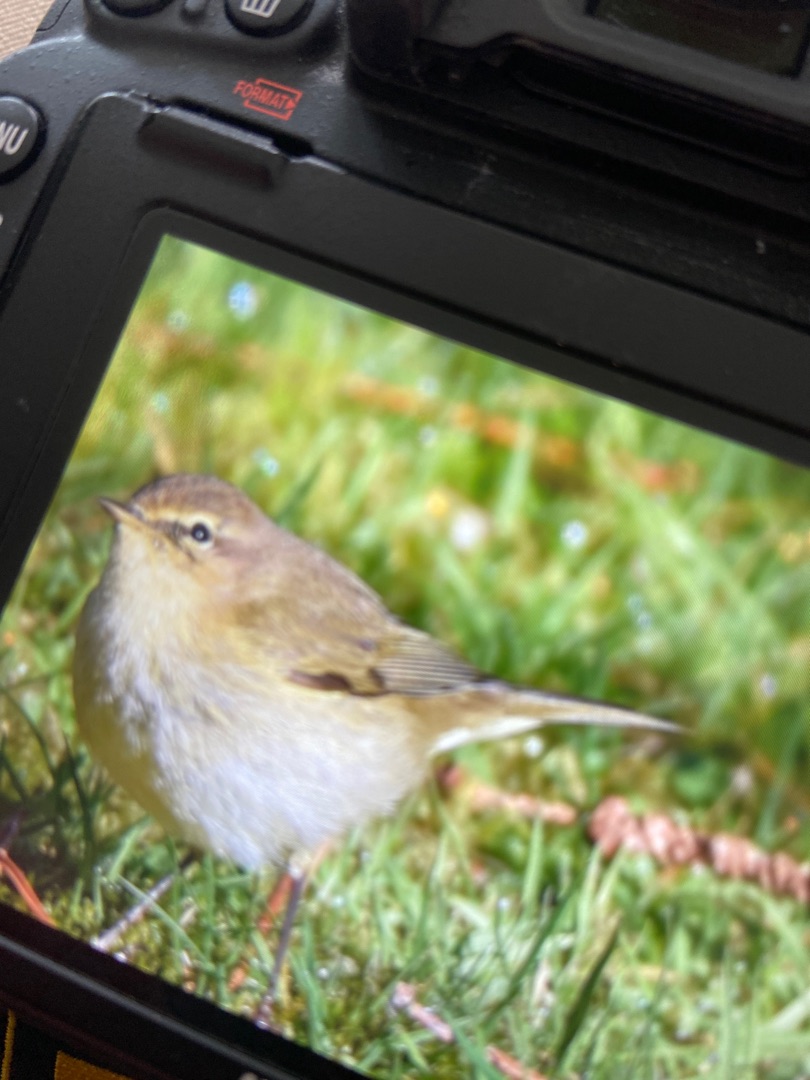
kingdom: Animalia
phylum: Chordata
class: Aves
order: Passeriformes
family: Phylloscopidae
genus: Phylloscopus
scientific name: Phylloscopus collybita
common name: Gransanger
